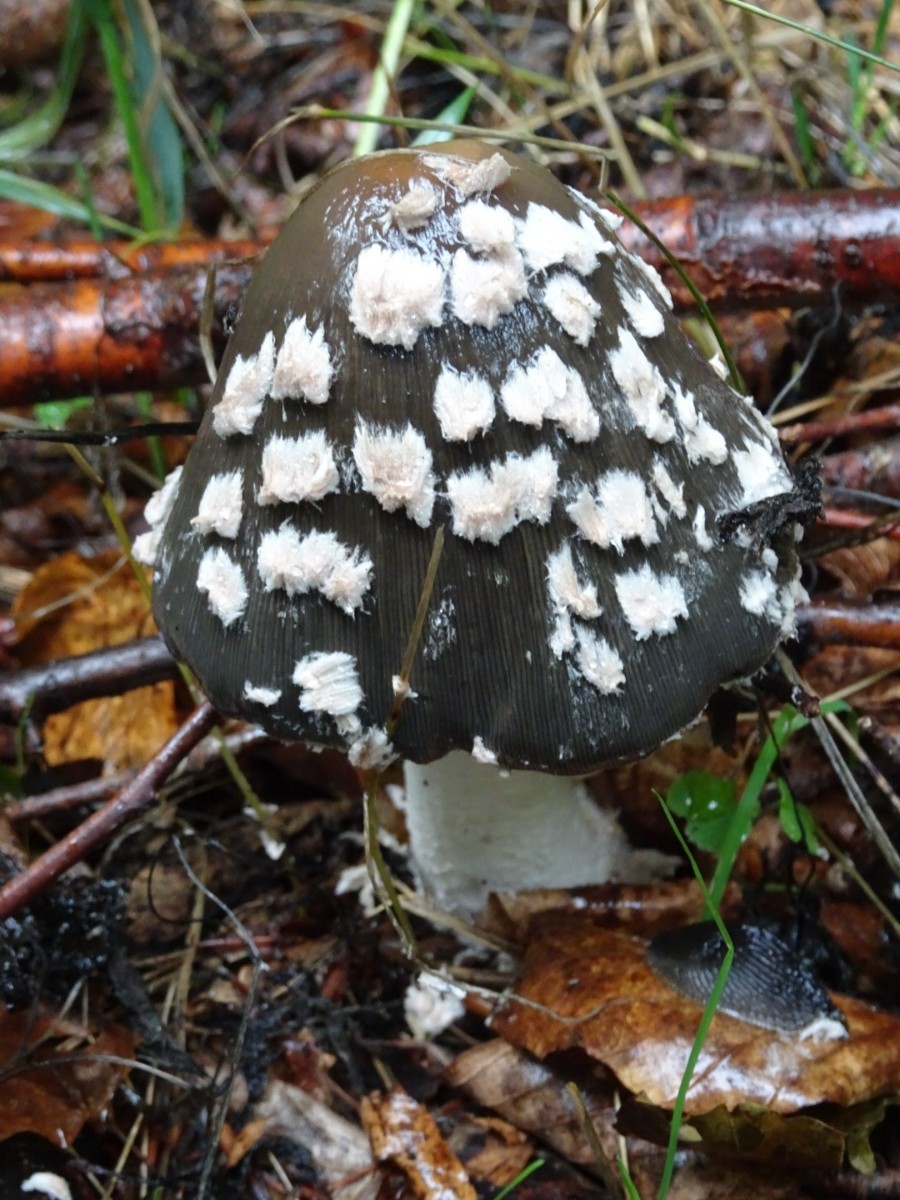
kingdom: Fungi
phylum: Basidiomycota
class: Agaricomycetes
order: Agaricales
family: Psathyrellaceae
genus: Coprinopsis
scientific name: Coprinopsis picacea
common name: skade-blækhat
